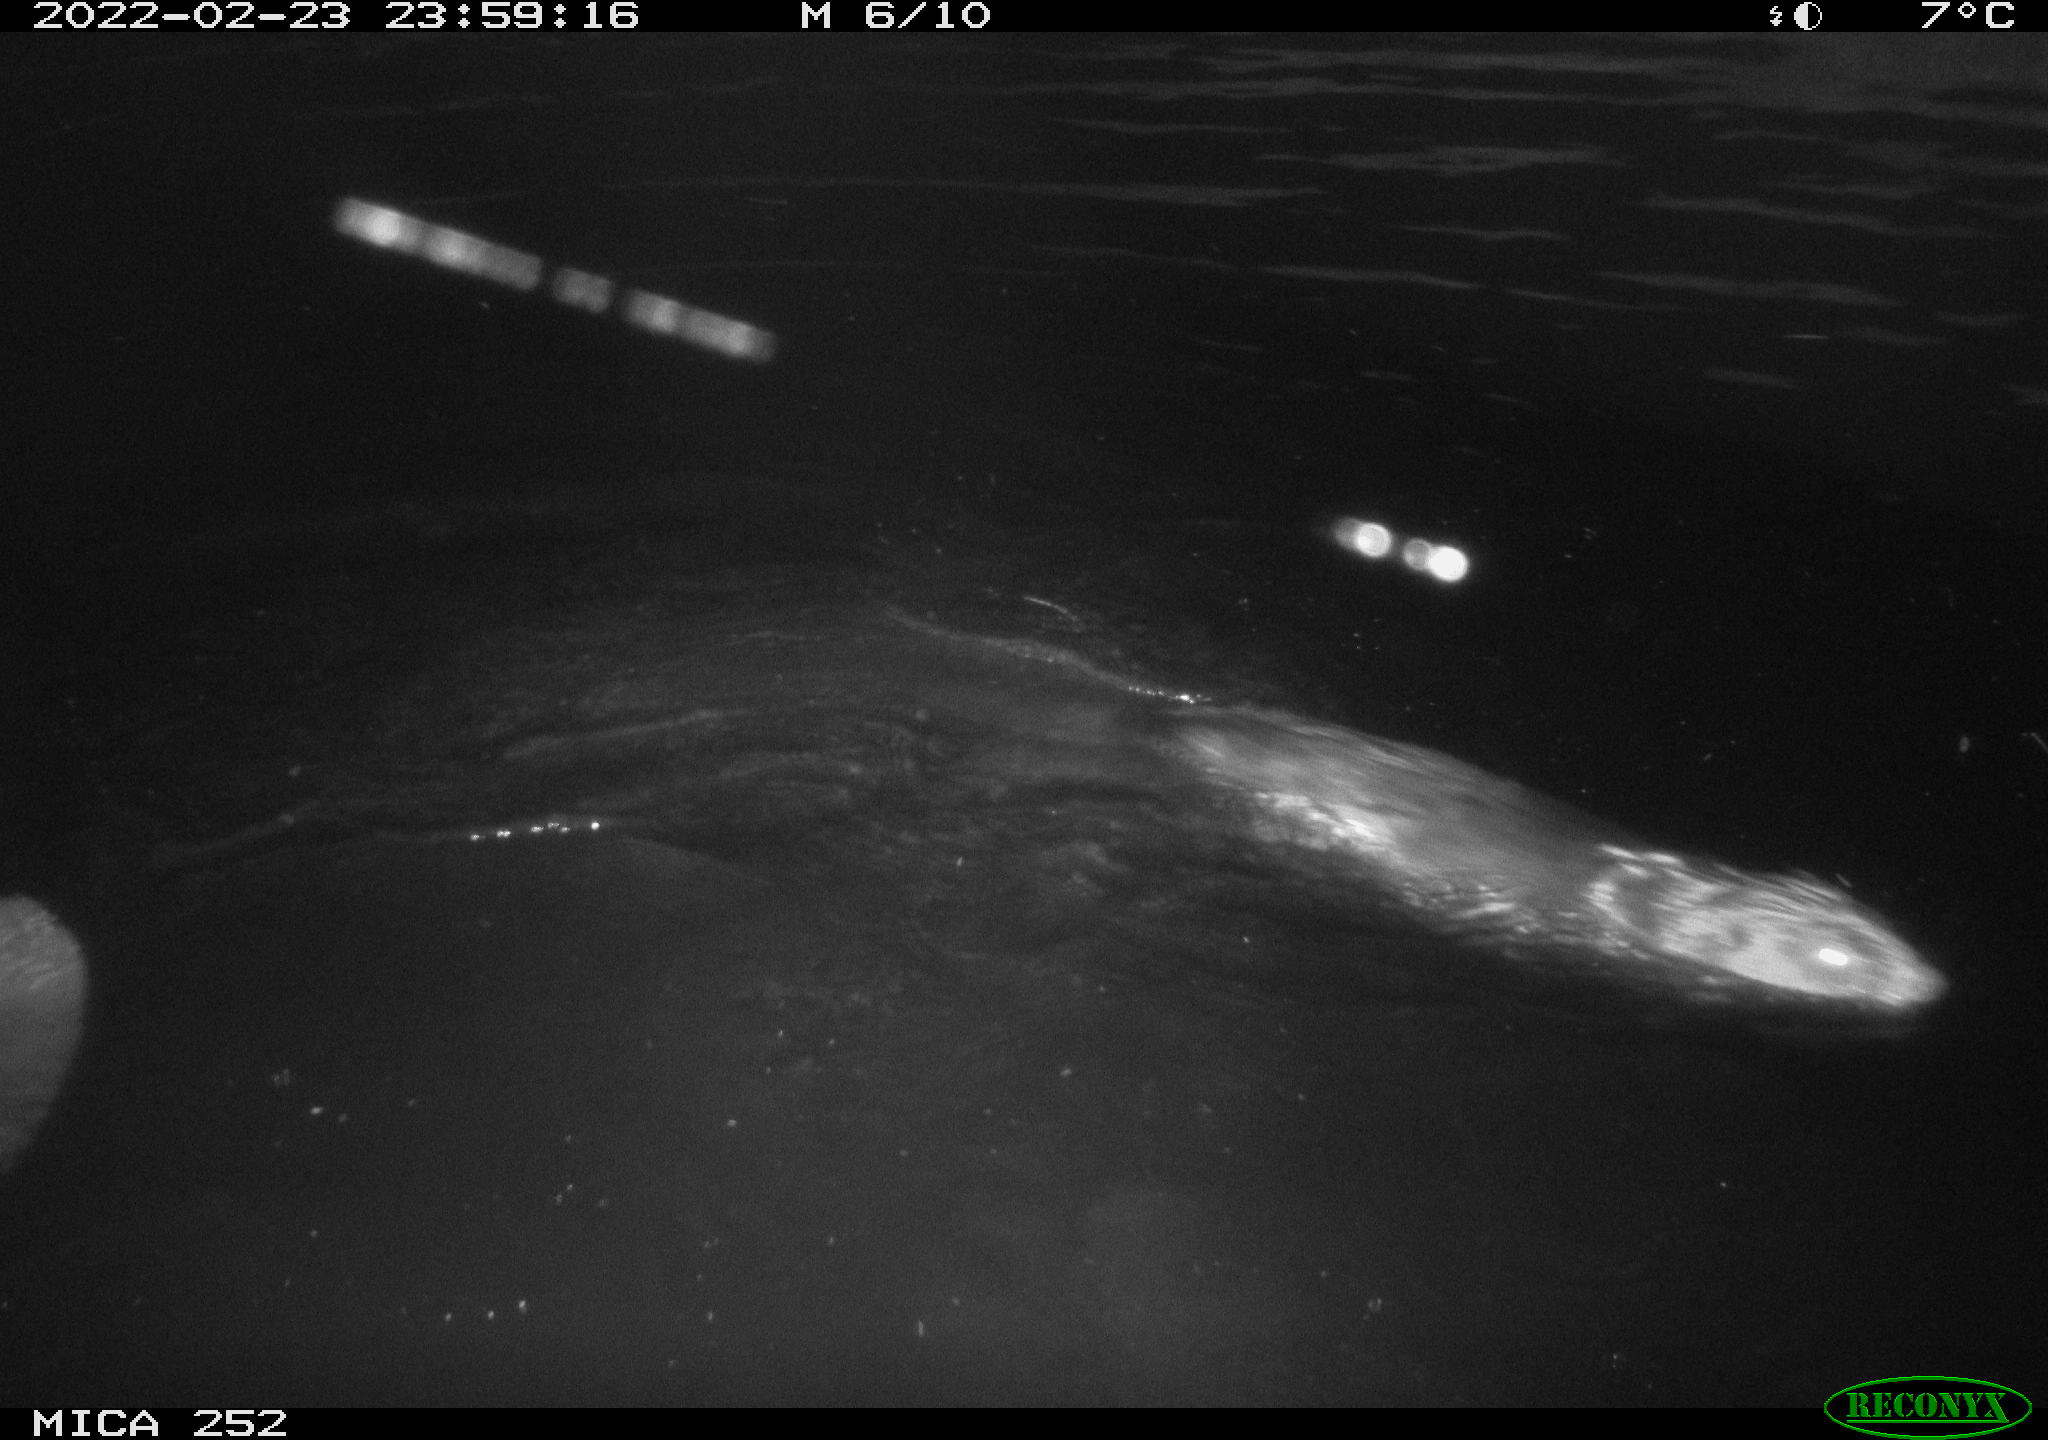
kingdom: Animalia
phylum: Chordata
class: Mammalia
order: Rodentia
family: Castoridae
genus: Castor
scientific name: Castor fiber
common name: Eurasian beaver
